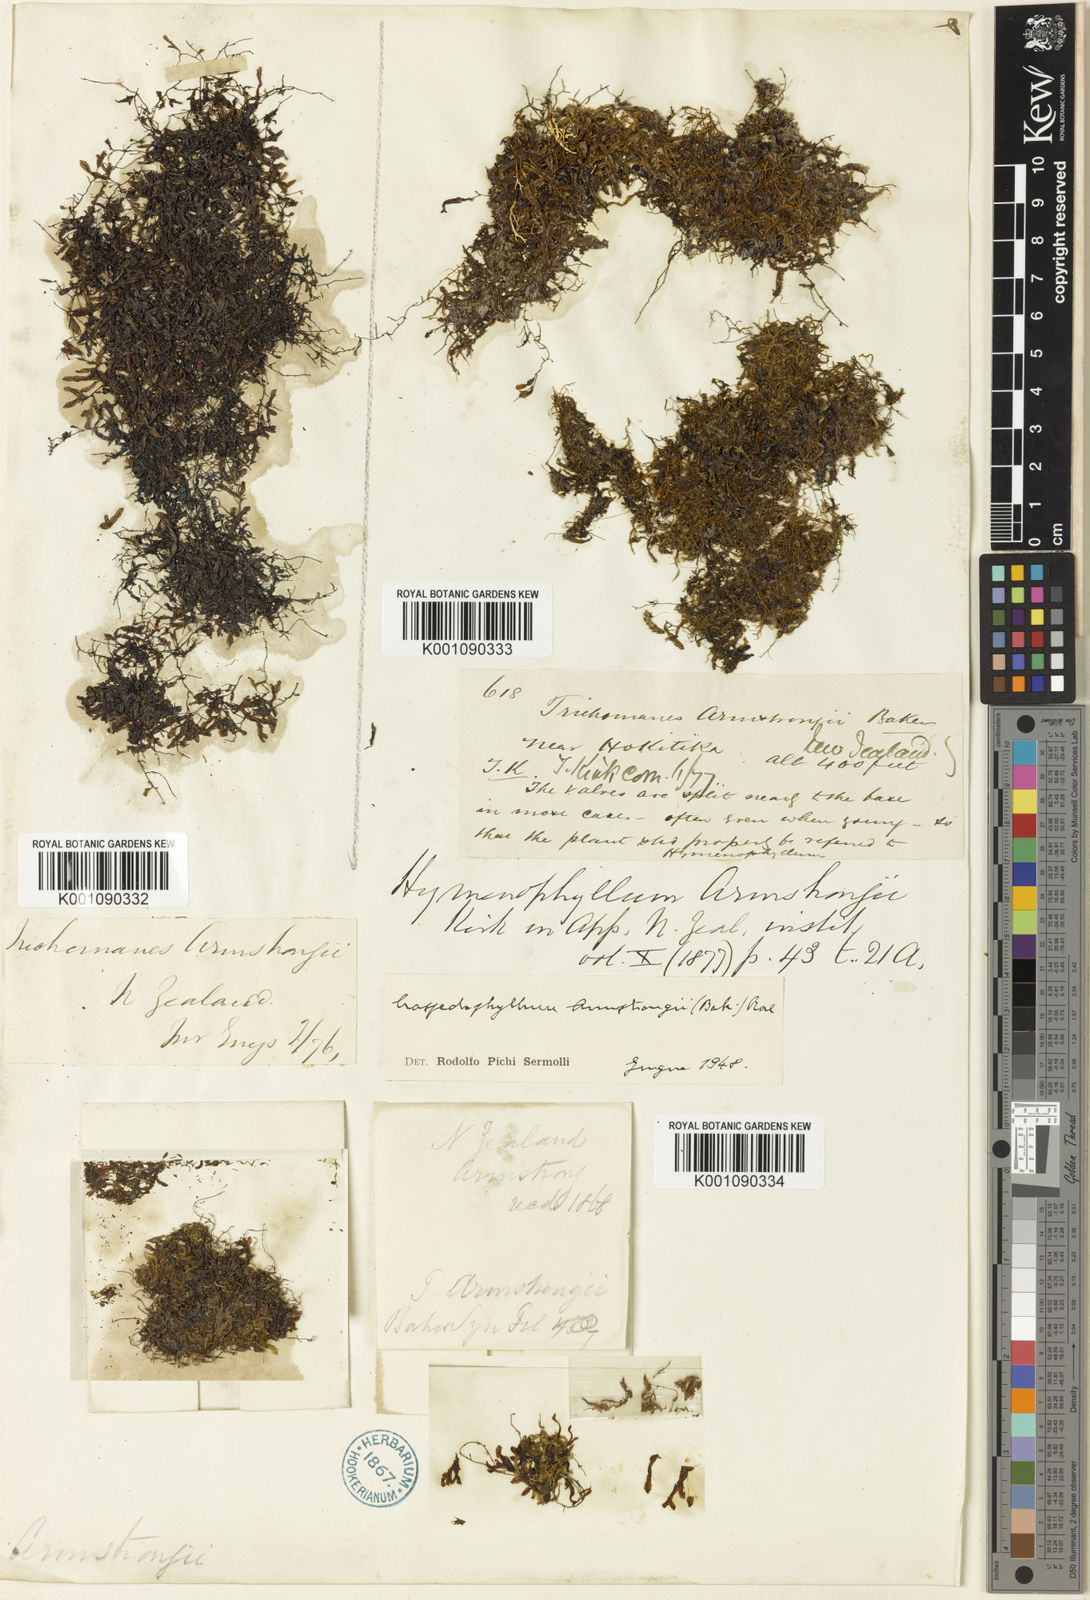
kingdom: Plantae
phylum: Tracheophyta
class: Polypodiopsida
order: Hymenophyllales
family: Hymenophyllaceae
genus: Hymenophyllum
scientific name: Hymenophyllum armstrongii
